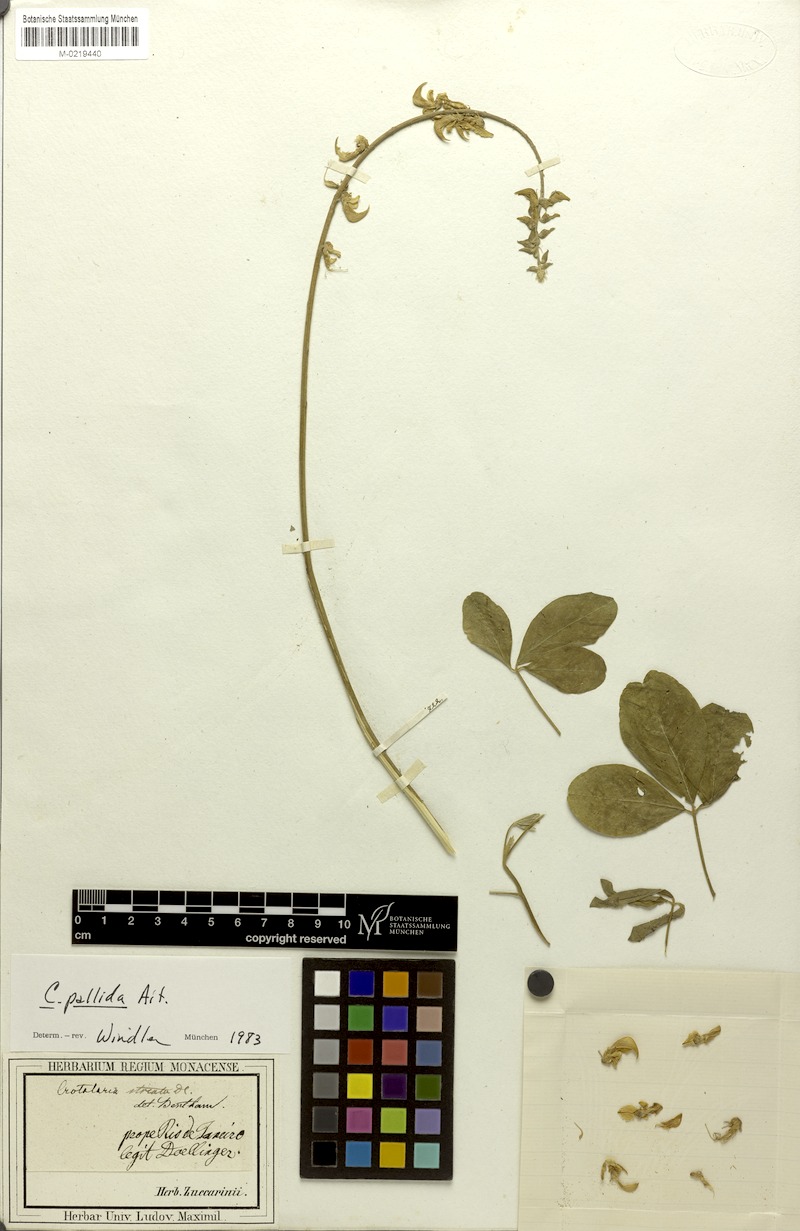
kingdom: Plantae
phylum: Tracheophyta
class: Magnoliopsida
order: Fabales
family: Fabaceae
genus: Crotalaria
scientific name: Crotalaria pallida
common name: Smooth rattlebox
